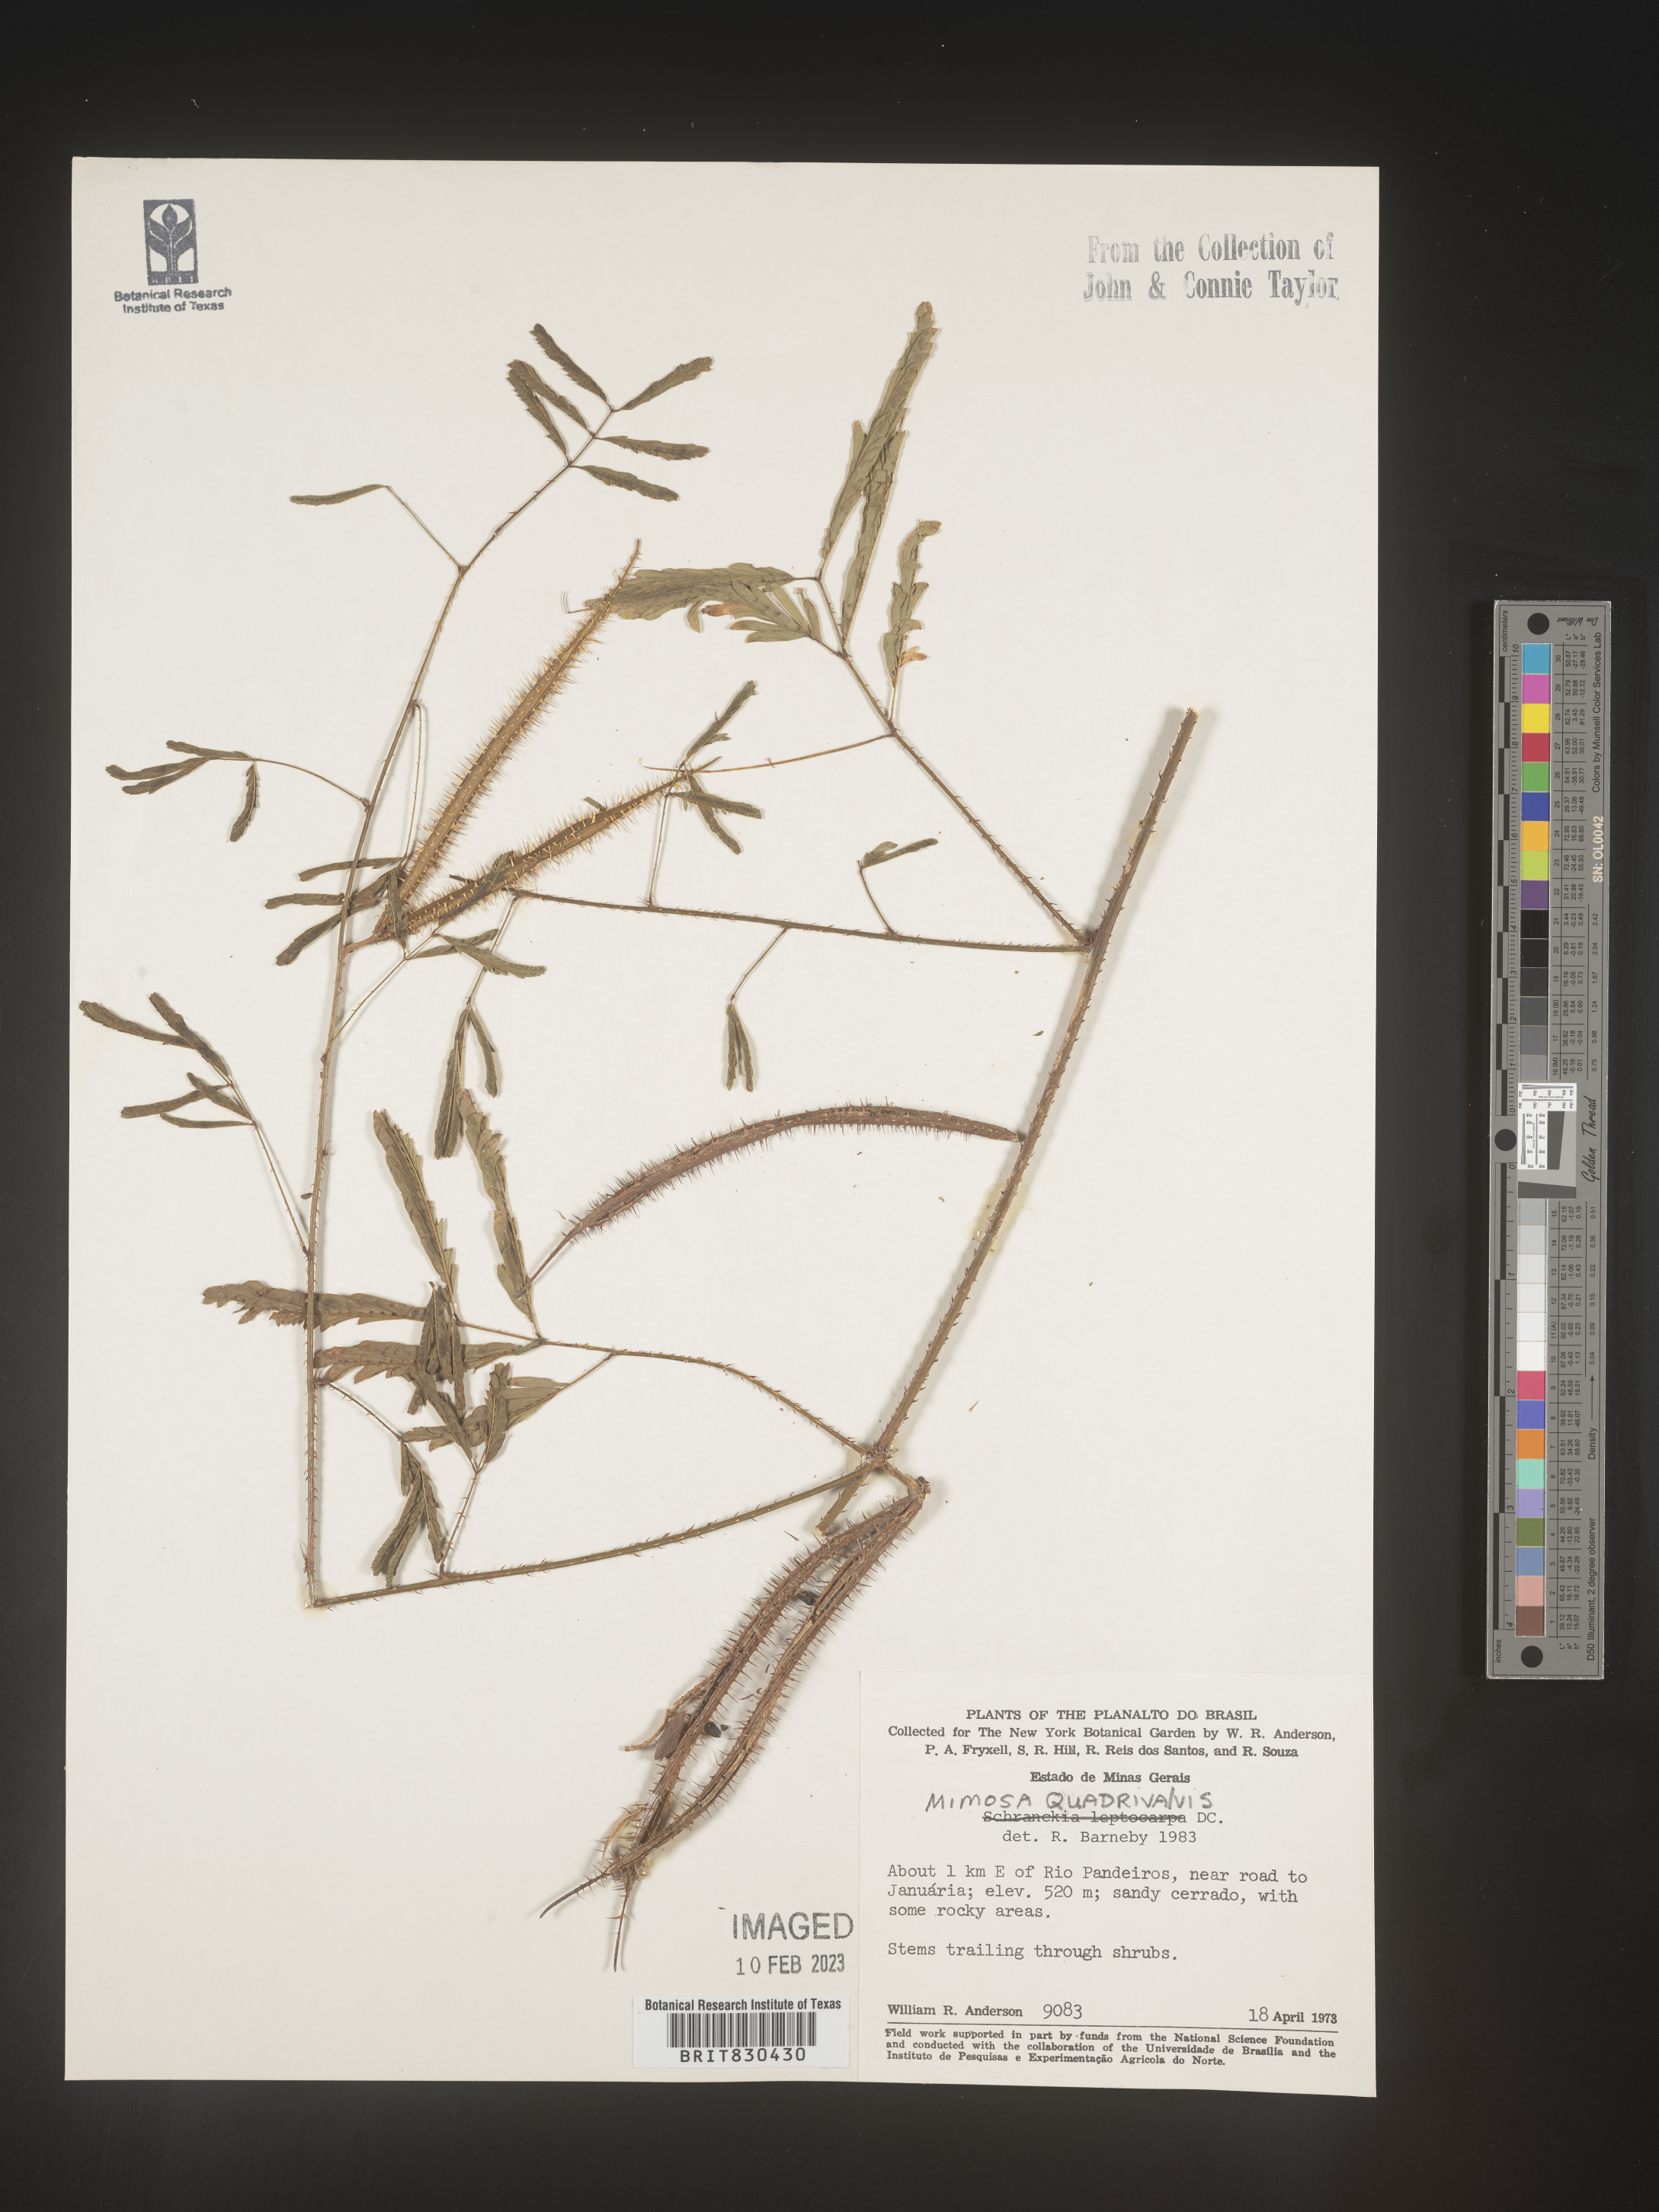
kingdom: Plantae
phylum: Tracheophyta
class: Magnoliopsida
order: Fabales
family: Fabaceae
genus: Mimosa
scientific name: Mimosa
